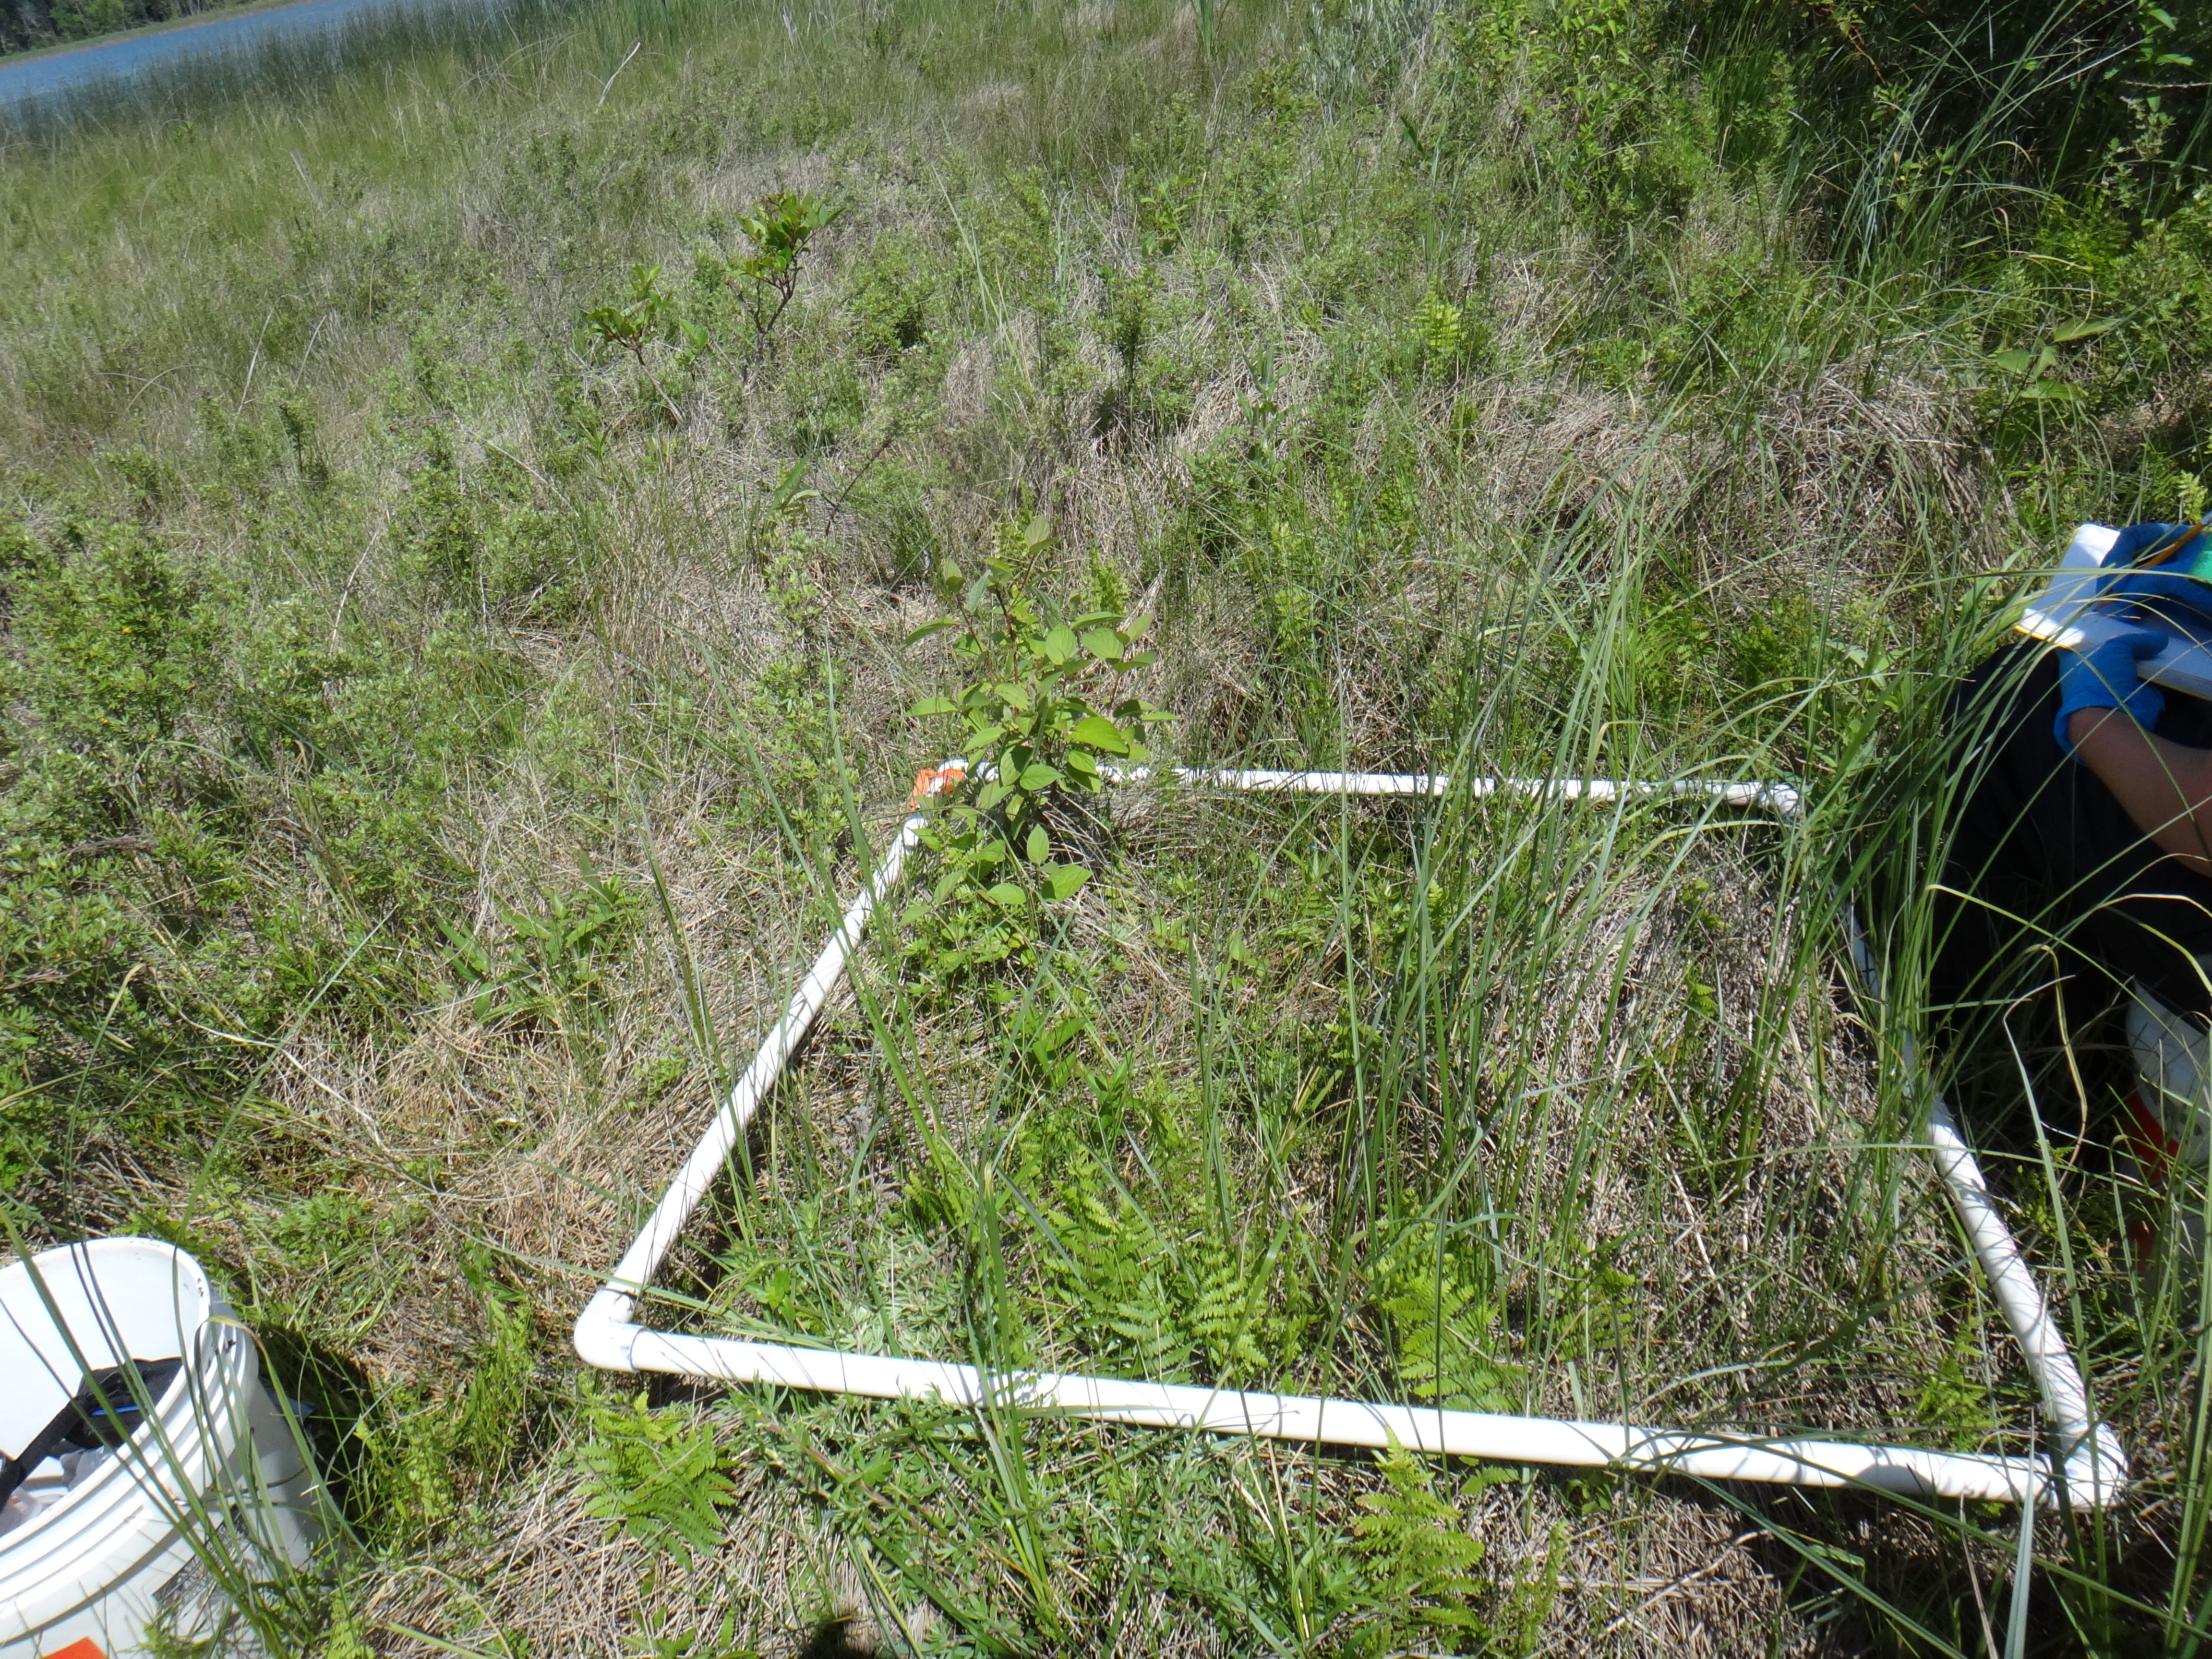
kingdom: Plantae
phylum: Tracheophyta
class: Magnoliopsida
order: Cornales
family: Cornaceae
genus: Cornus
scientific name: Cornus sericea
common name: Red-osier dogwood
